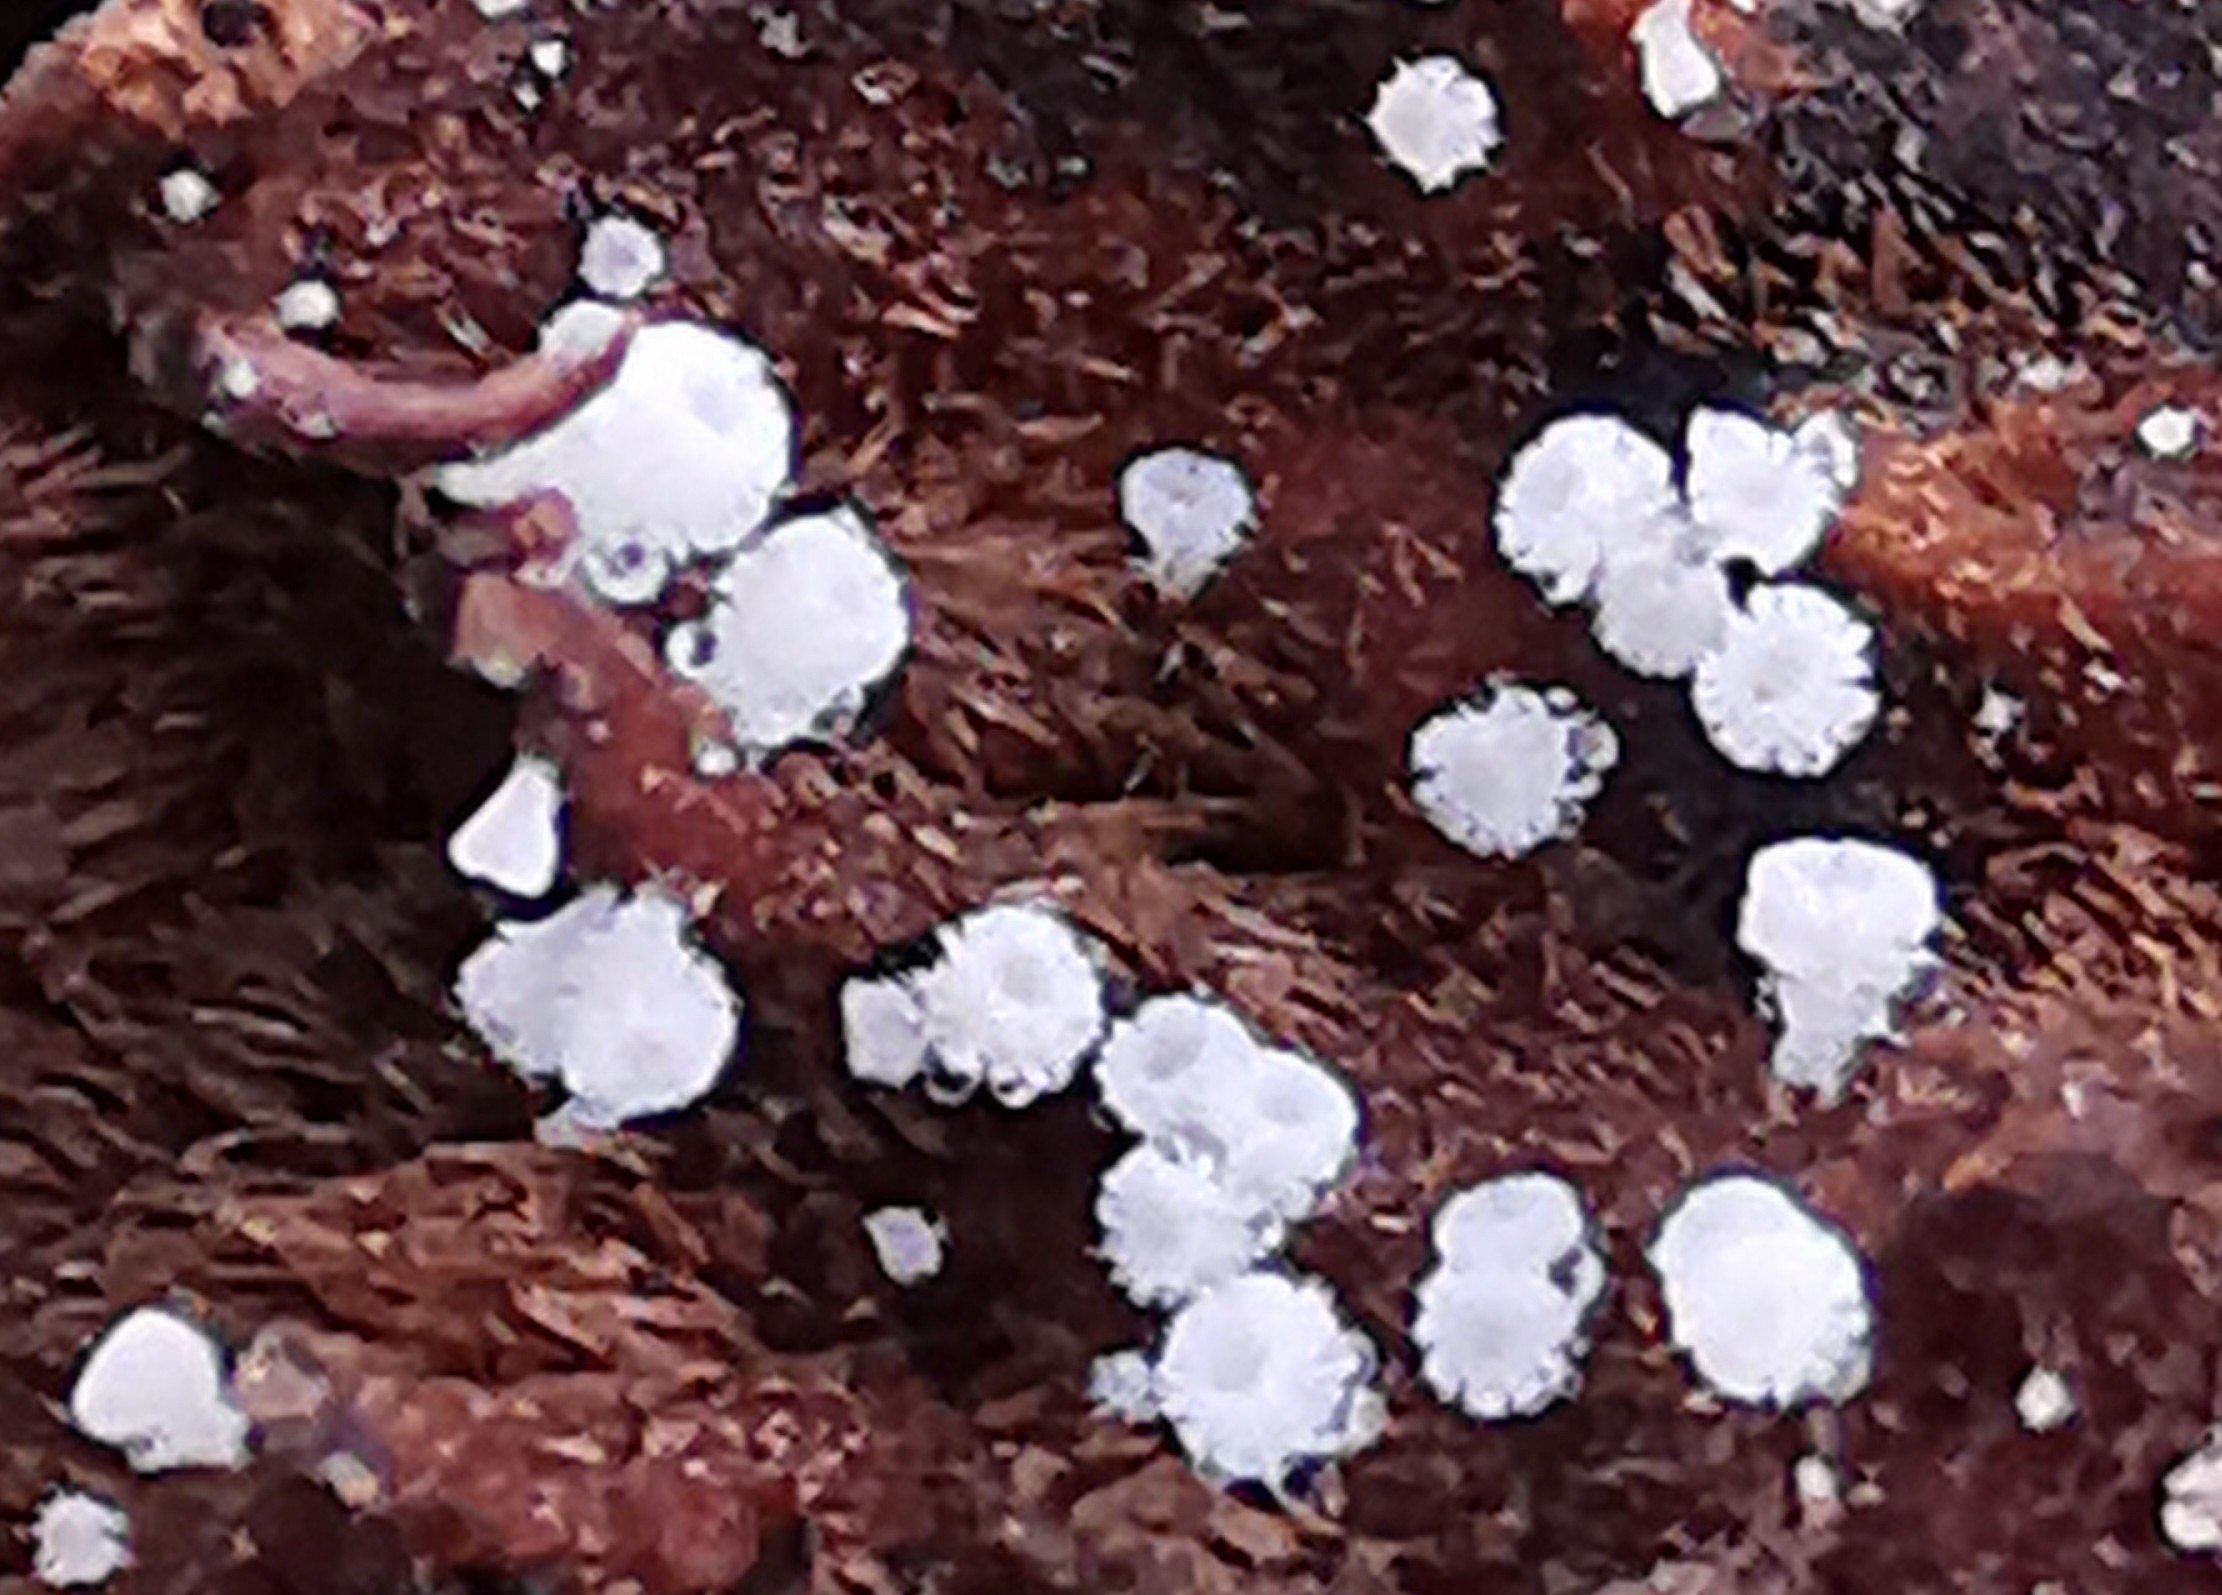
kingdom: Fungi
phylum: Ascomycota
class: Leotiomycetes
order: Helotiales
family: Lachnaceae
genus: Lachnum
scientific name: Lachnum virgineum
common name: jomfru-frynseskive
